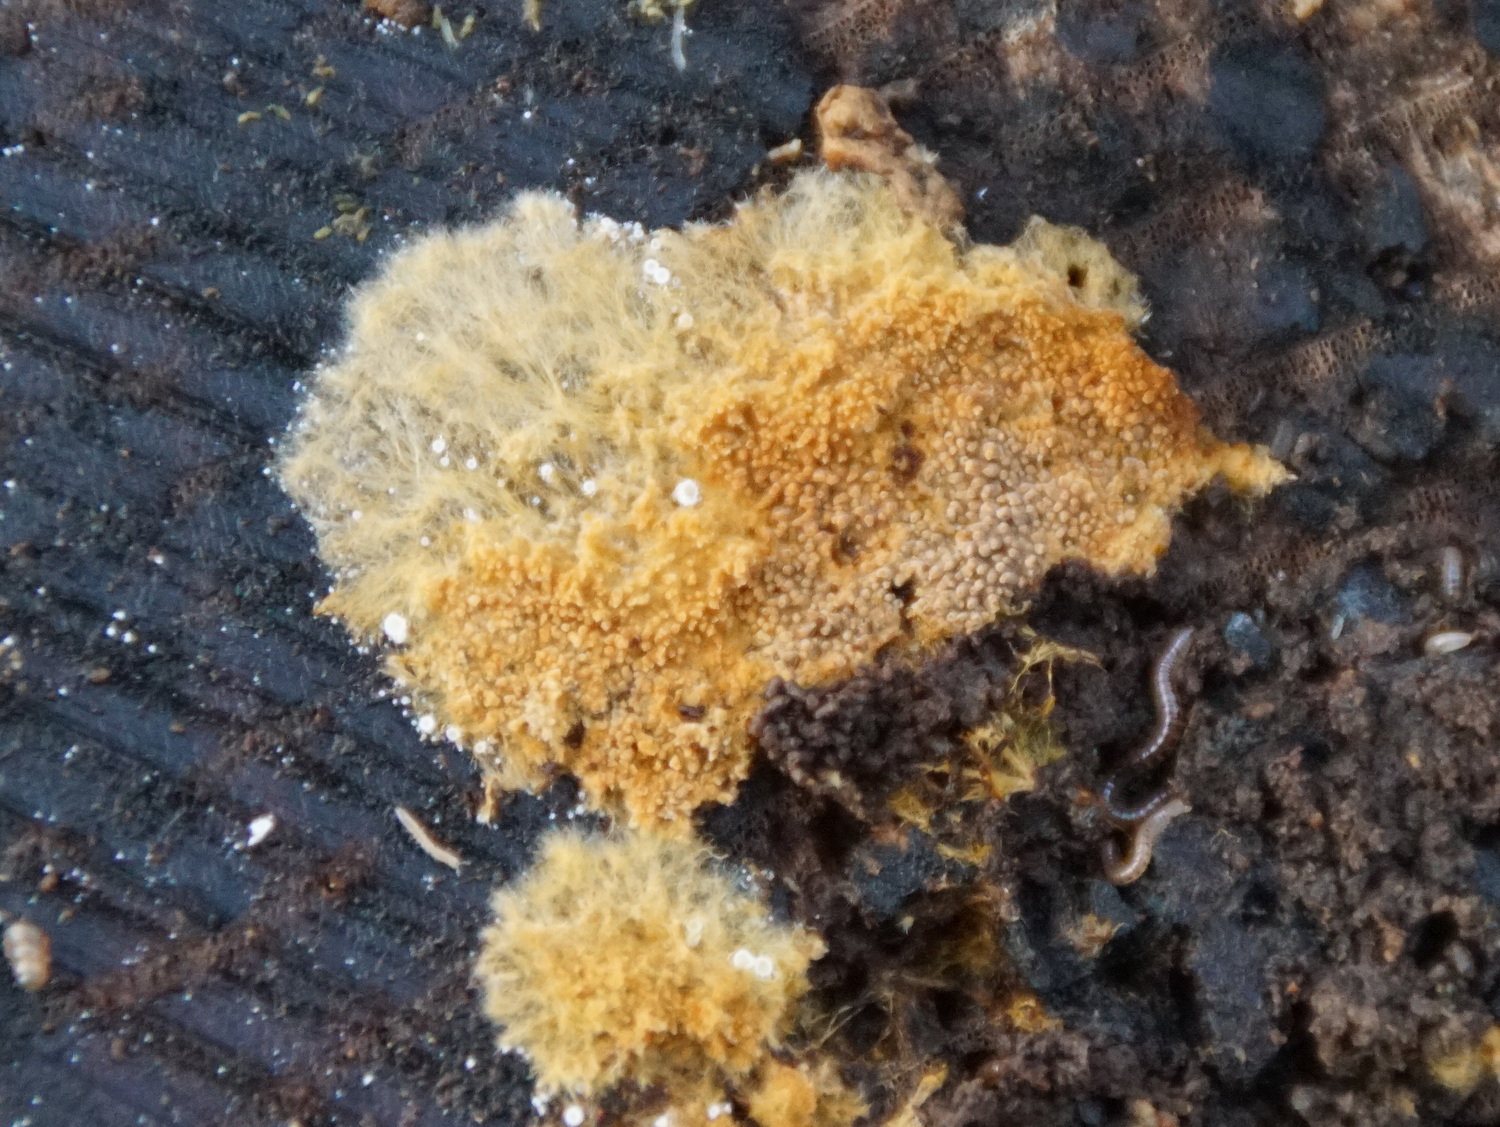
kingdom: Fungi
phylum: Basidiomycota
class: Agaricomycetes
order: Thelephorales
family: Thelephoraceae
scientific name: Thelephoraceae
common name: frynsesvampfamilien
